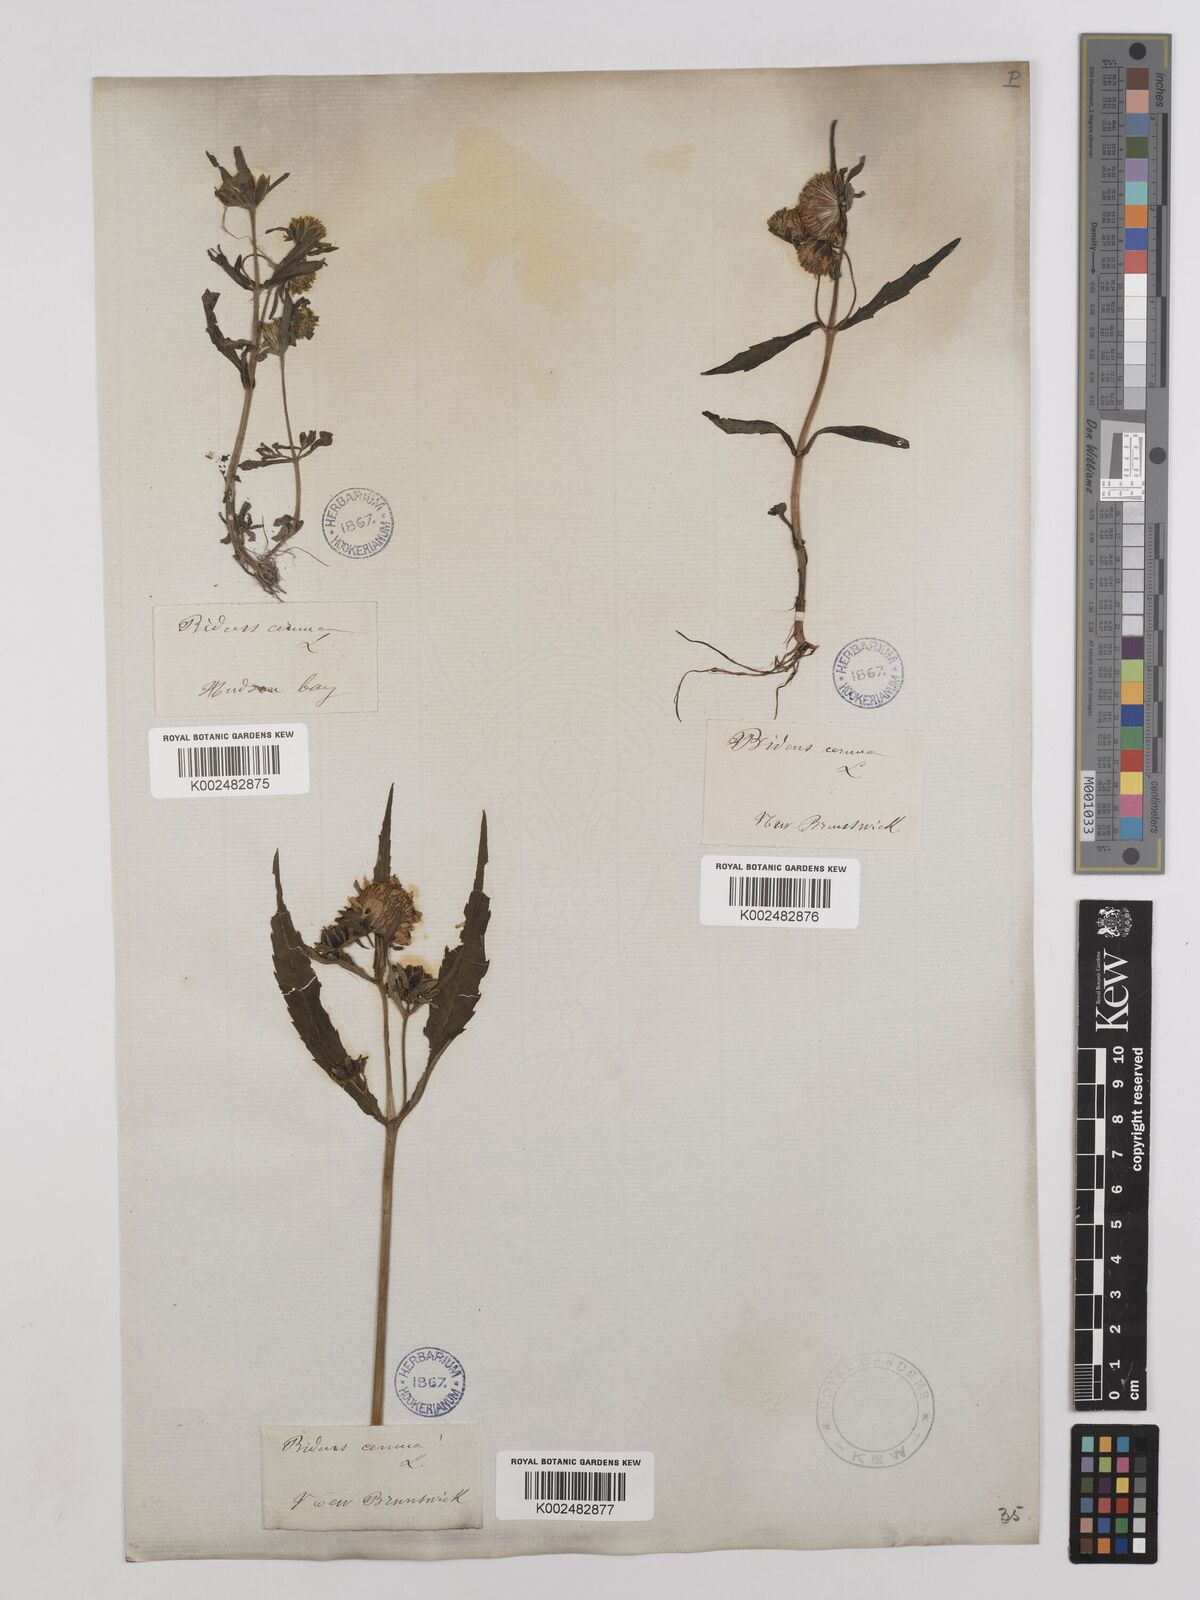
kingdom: Plantae
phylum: Tracheophyta
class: Magnoliopsida
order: Asterales
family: Asteraceae
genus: Bidens
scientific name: Bidens
